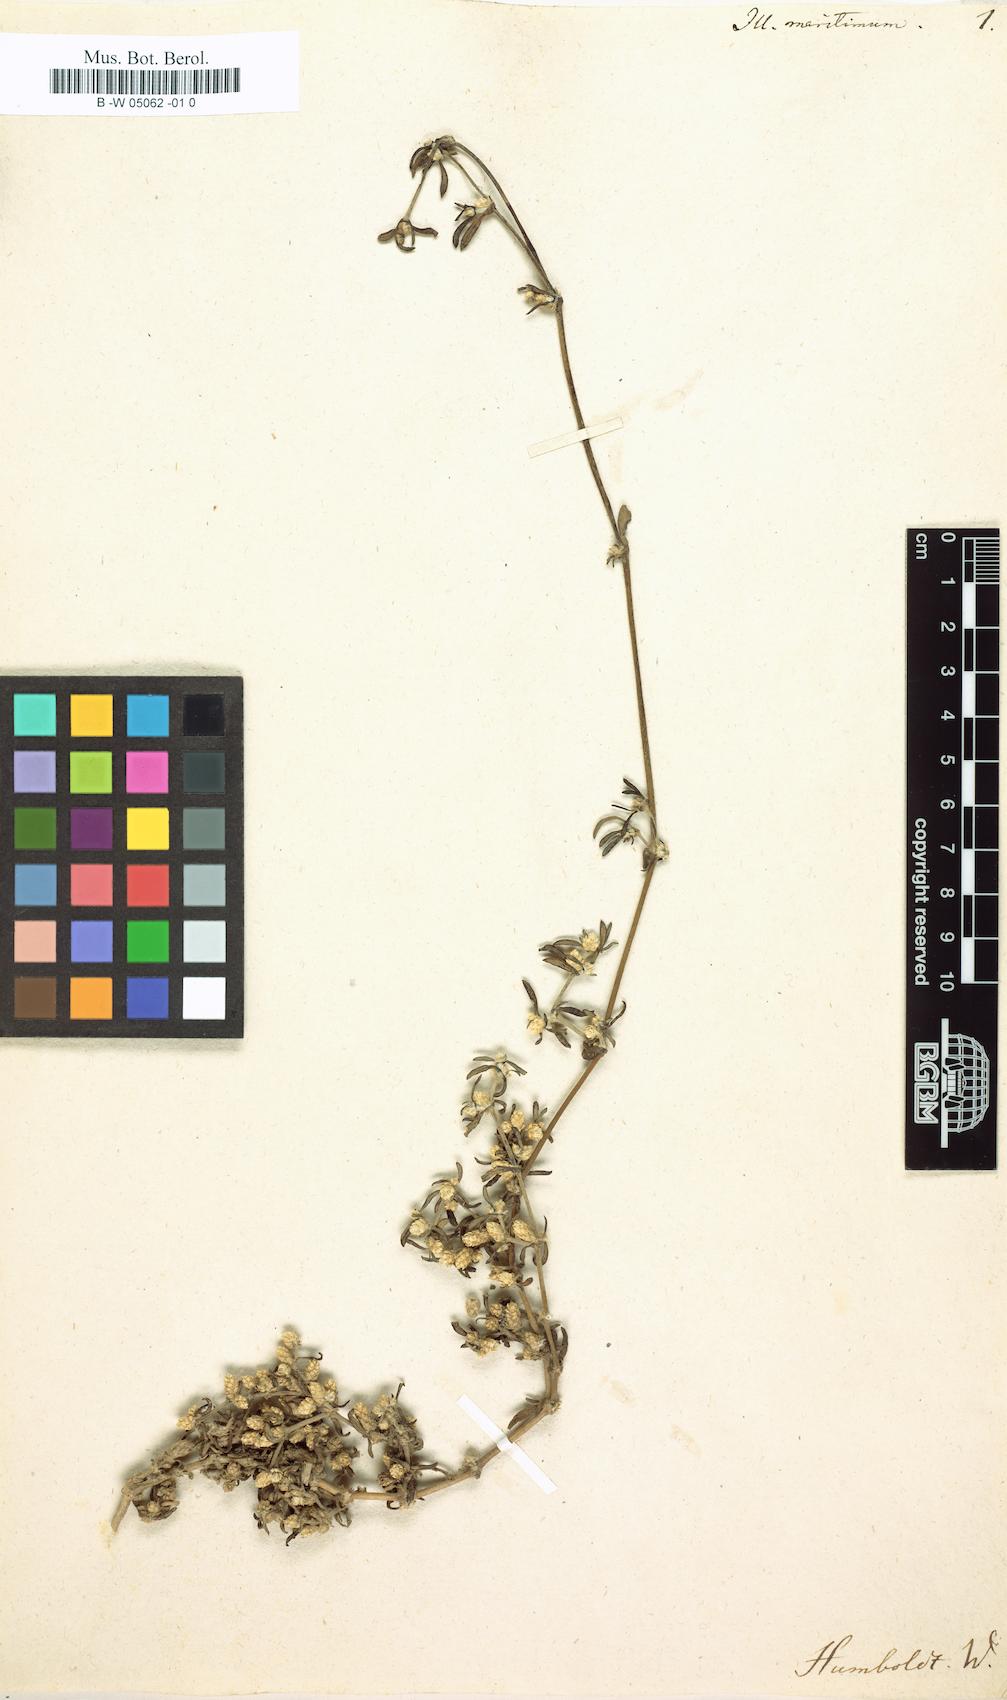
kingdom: Plantae
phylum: Tracheophyta
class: Magnoliopsida
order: Caryophyllales
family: Amaranthaceae
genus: Pedersenia
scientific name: Pedersenia argentata
